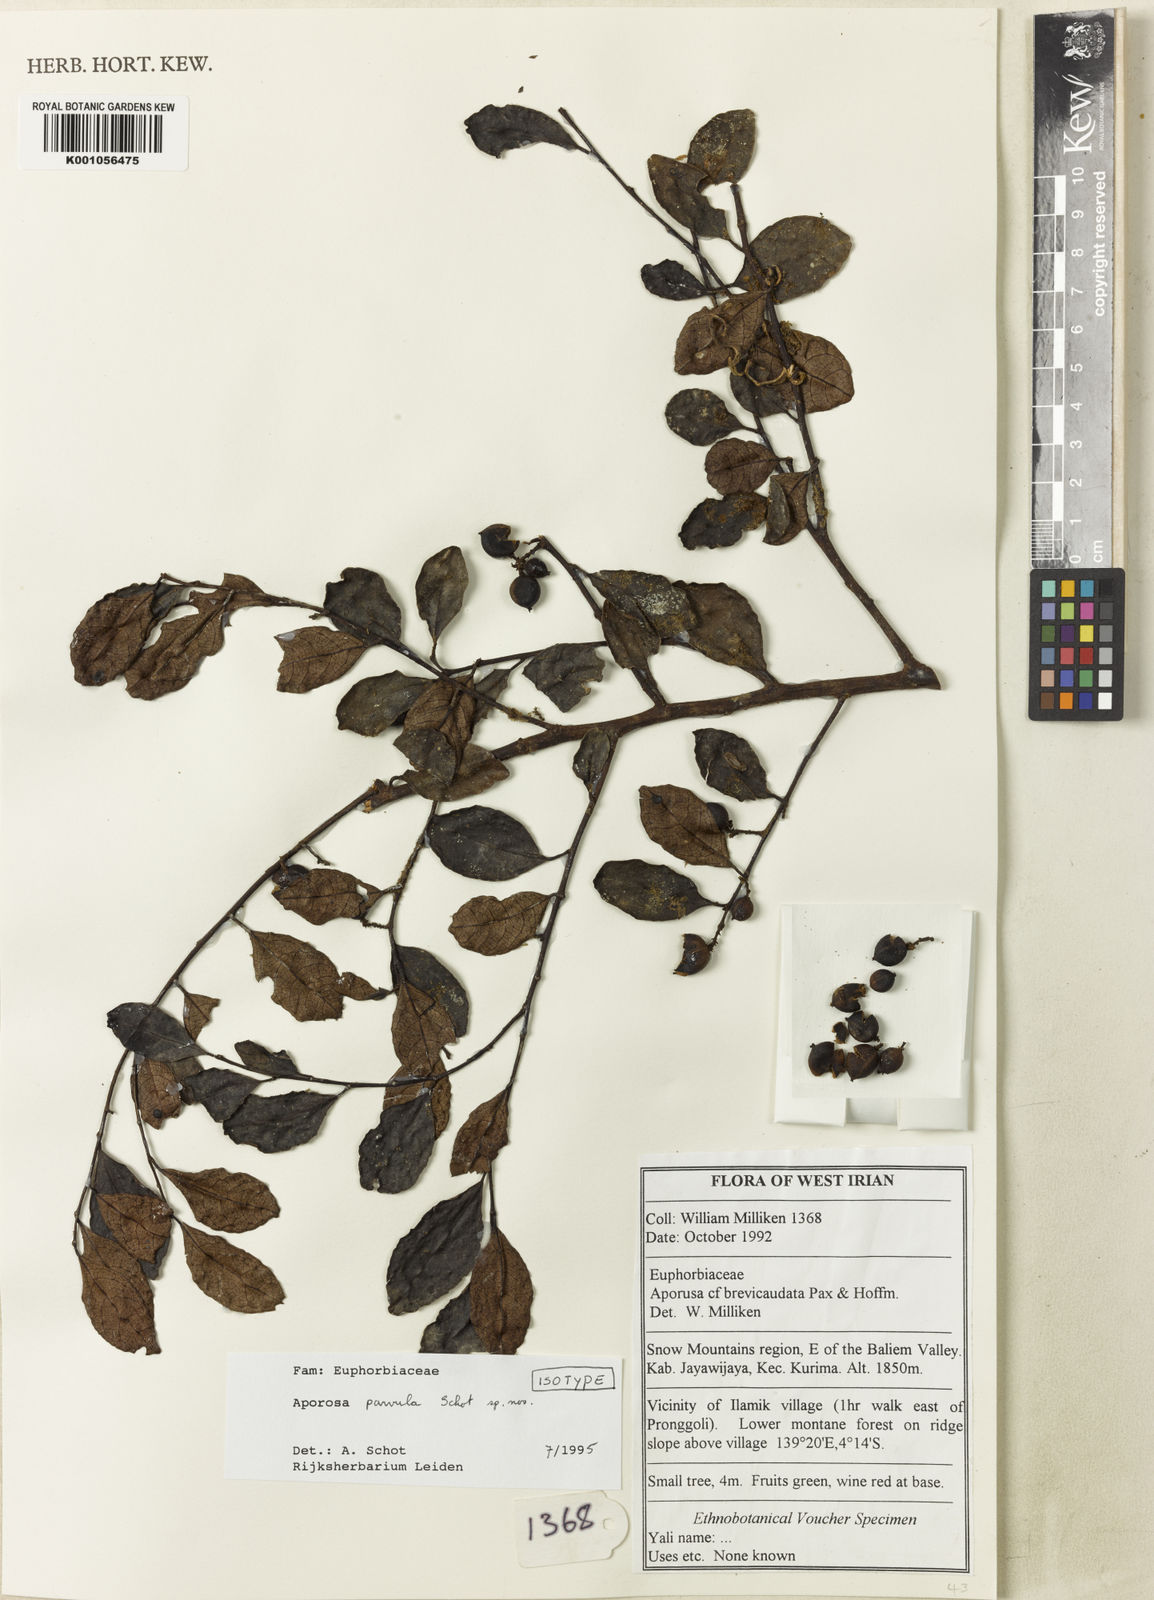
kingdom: Plantae
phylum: Tracheophyta
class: Magnoliopsida
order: Malpighiales
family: Phyllanthaceae
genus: Aporosa
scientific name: Aporosa parvula
